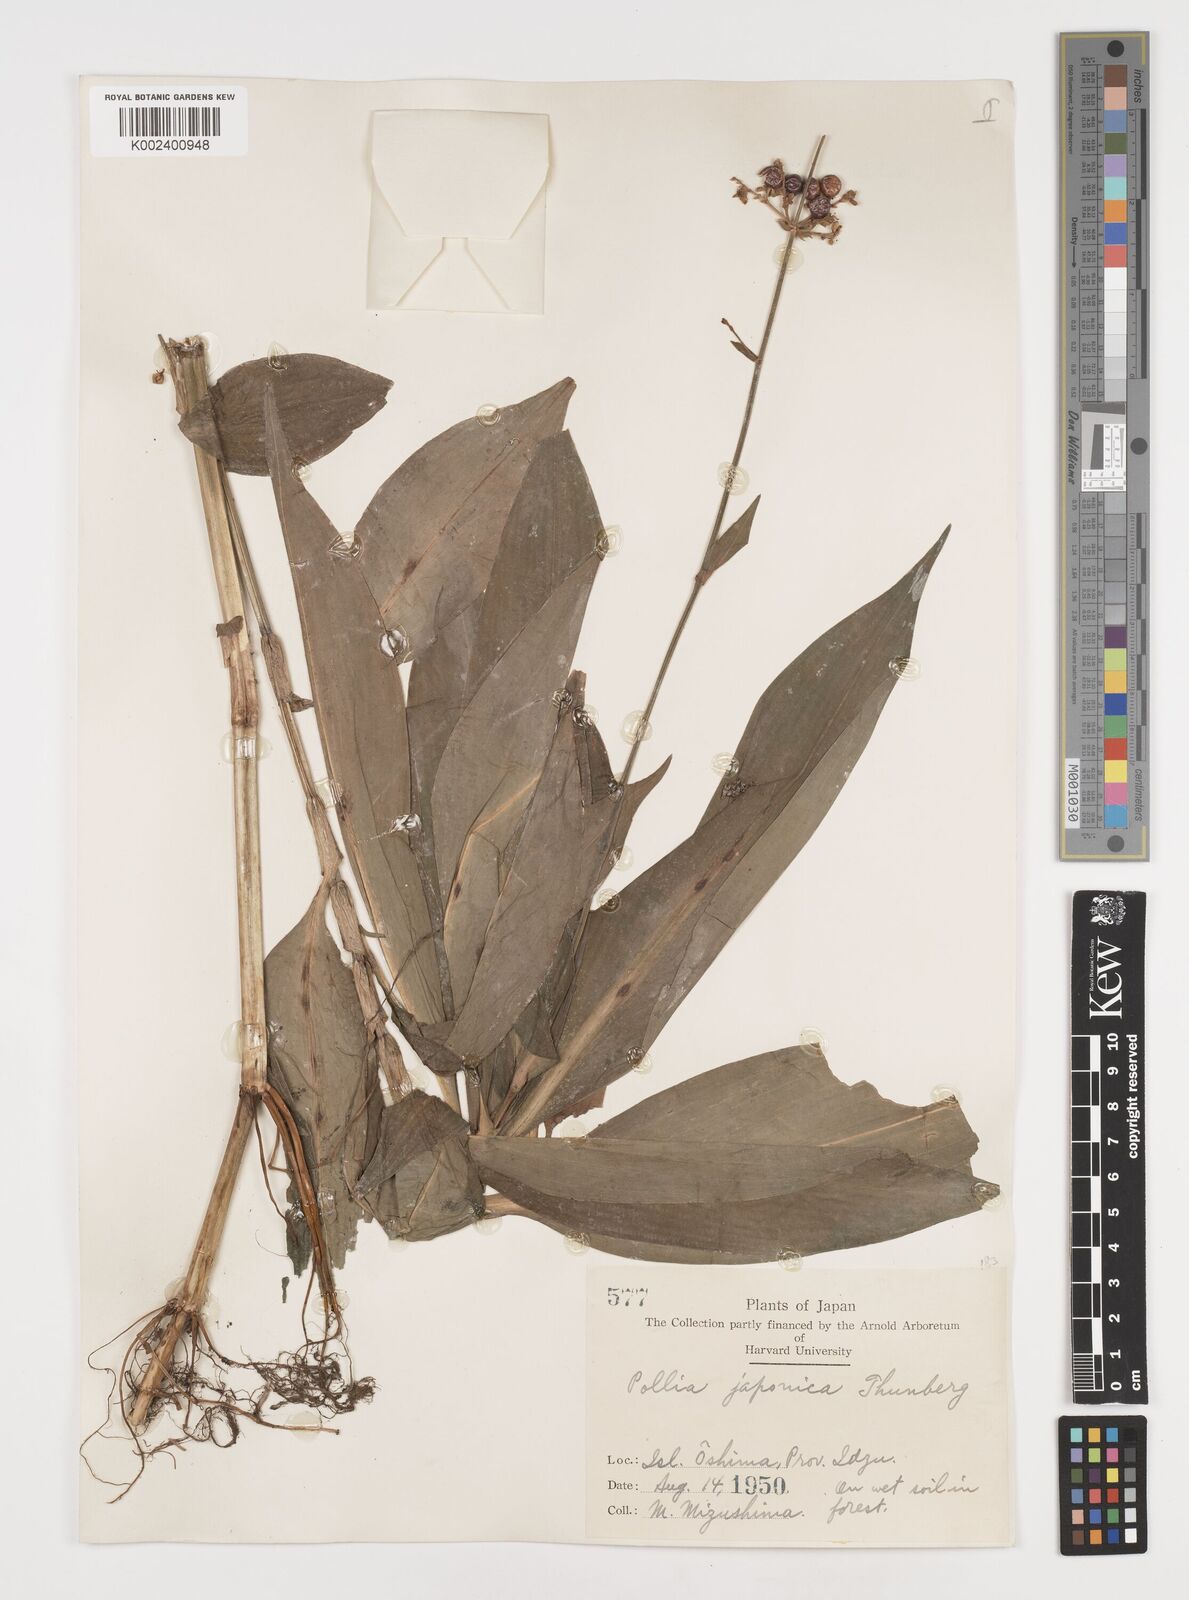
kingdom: Plantae
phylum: Tracheophyta
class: Liliopsida
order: Commelinales
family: Commelinaceae
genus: Pollia
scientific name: Pollia japonica
